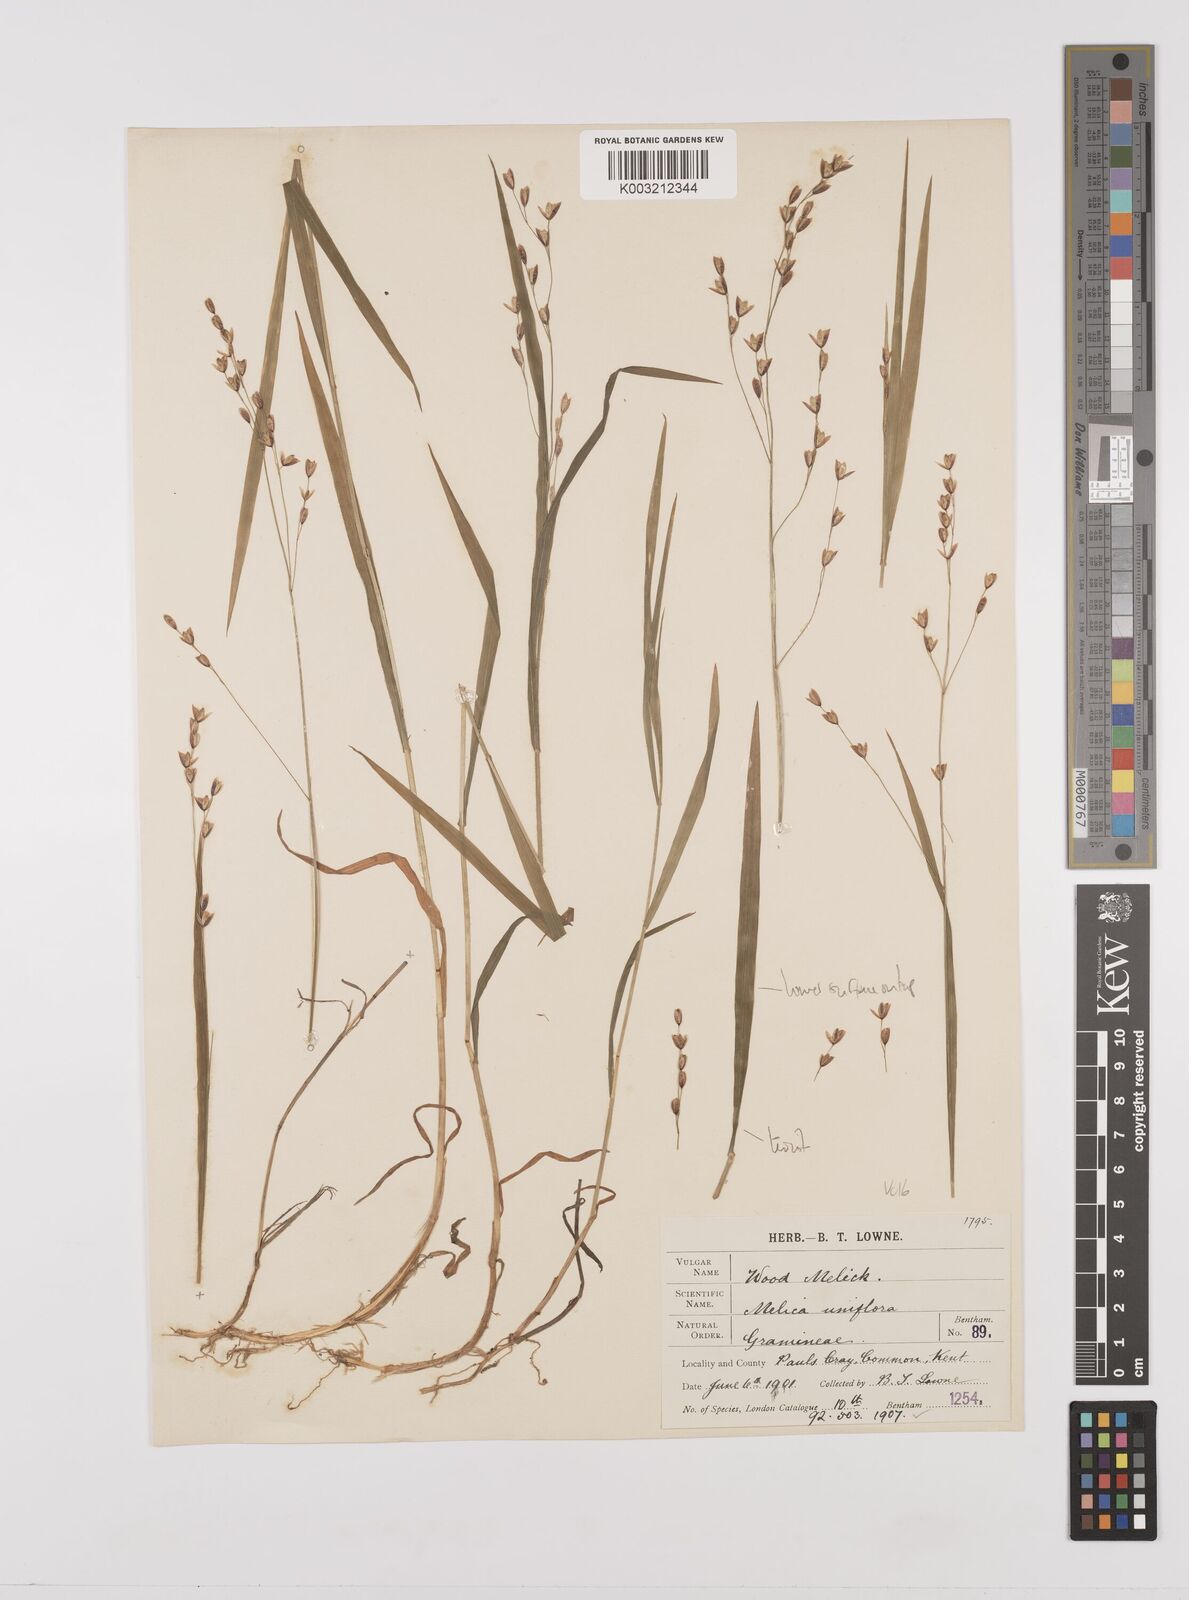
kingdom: Plantae
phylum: Tracheophyta
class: Liliopsida
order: Poales
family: Poaceae
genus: Melica
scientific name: Melica uniflora
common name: Wood melick
